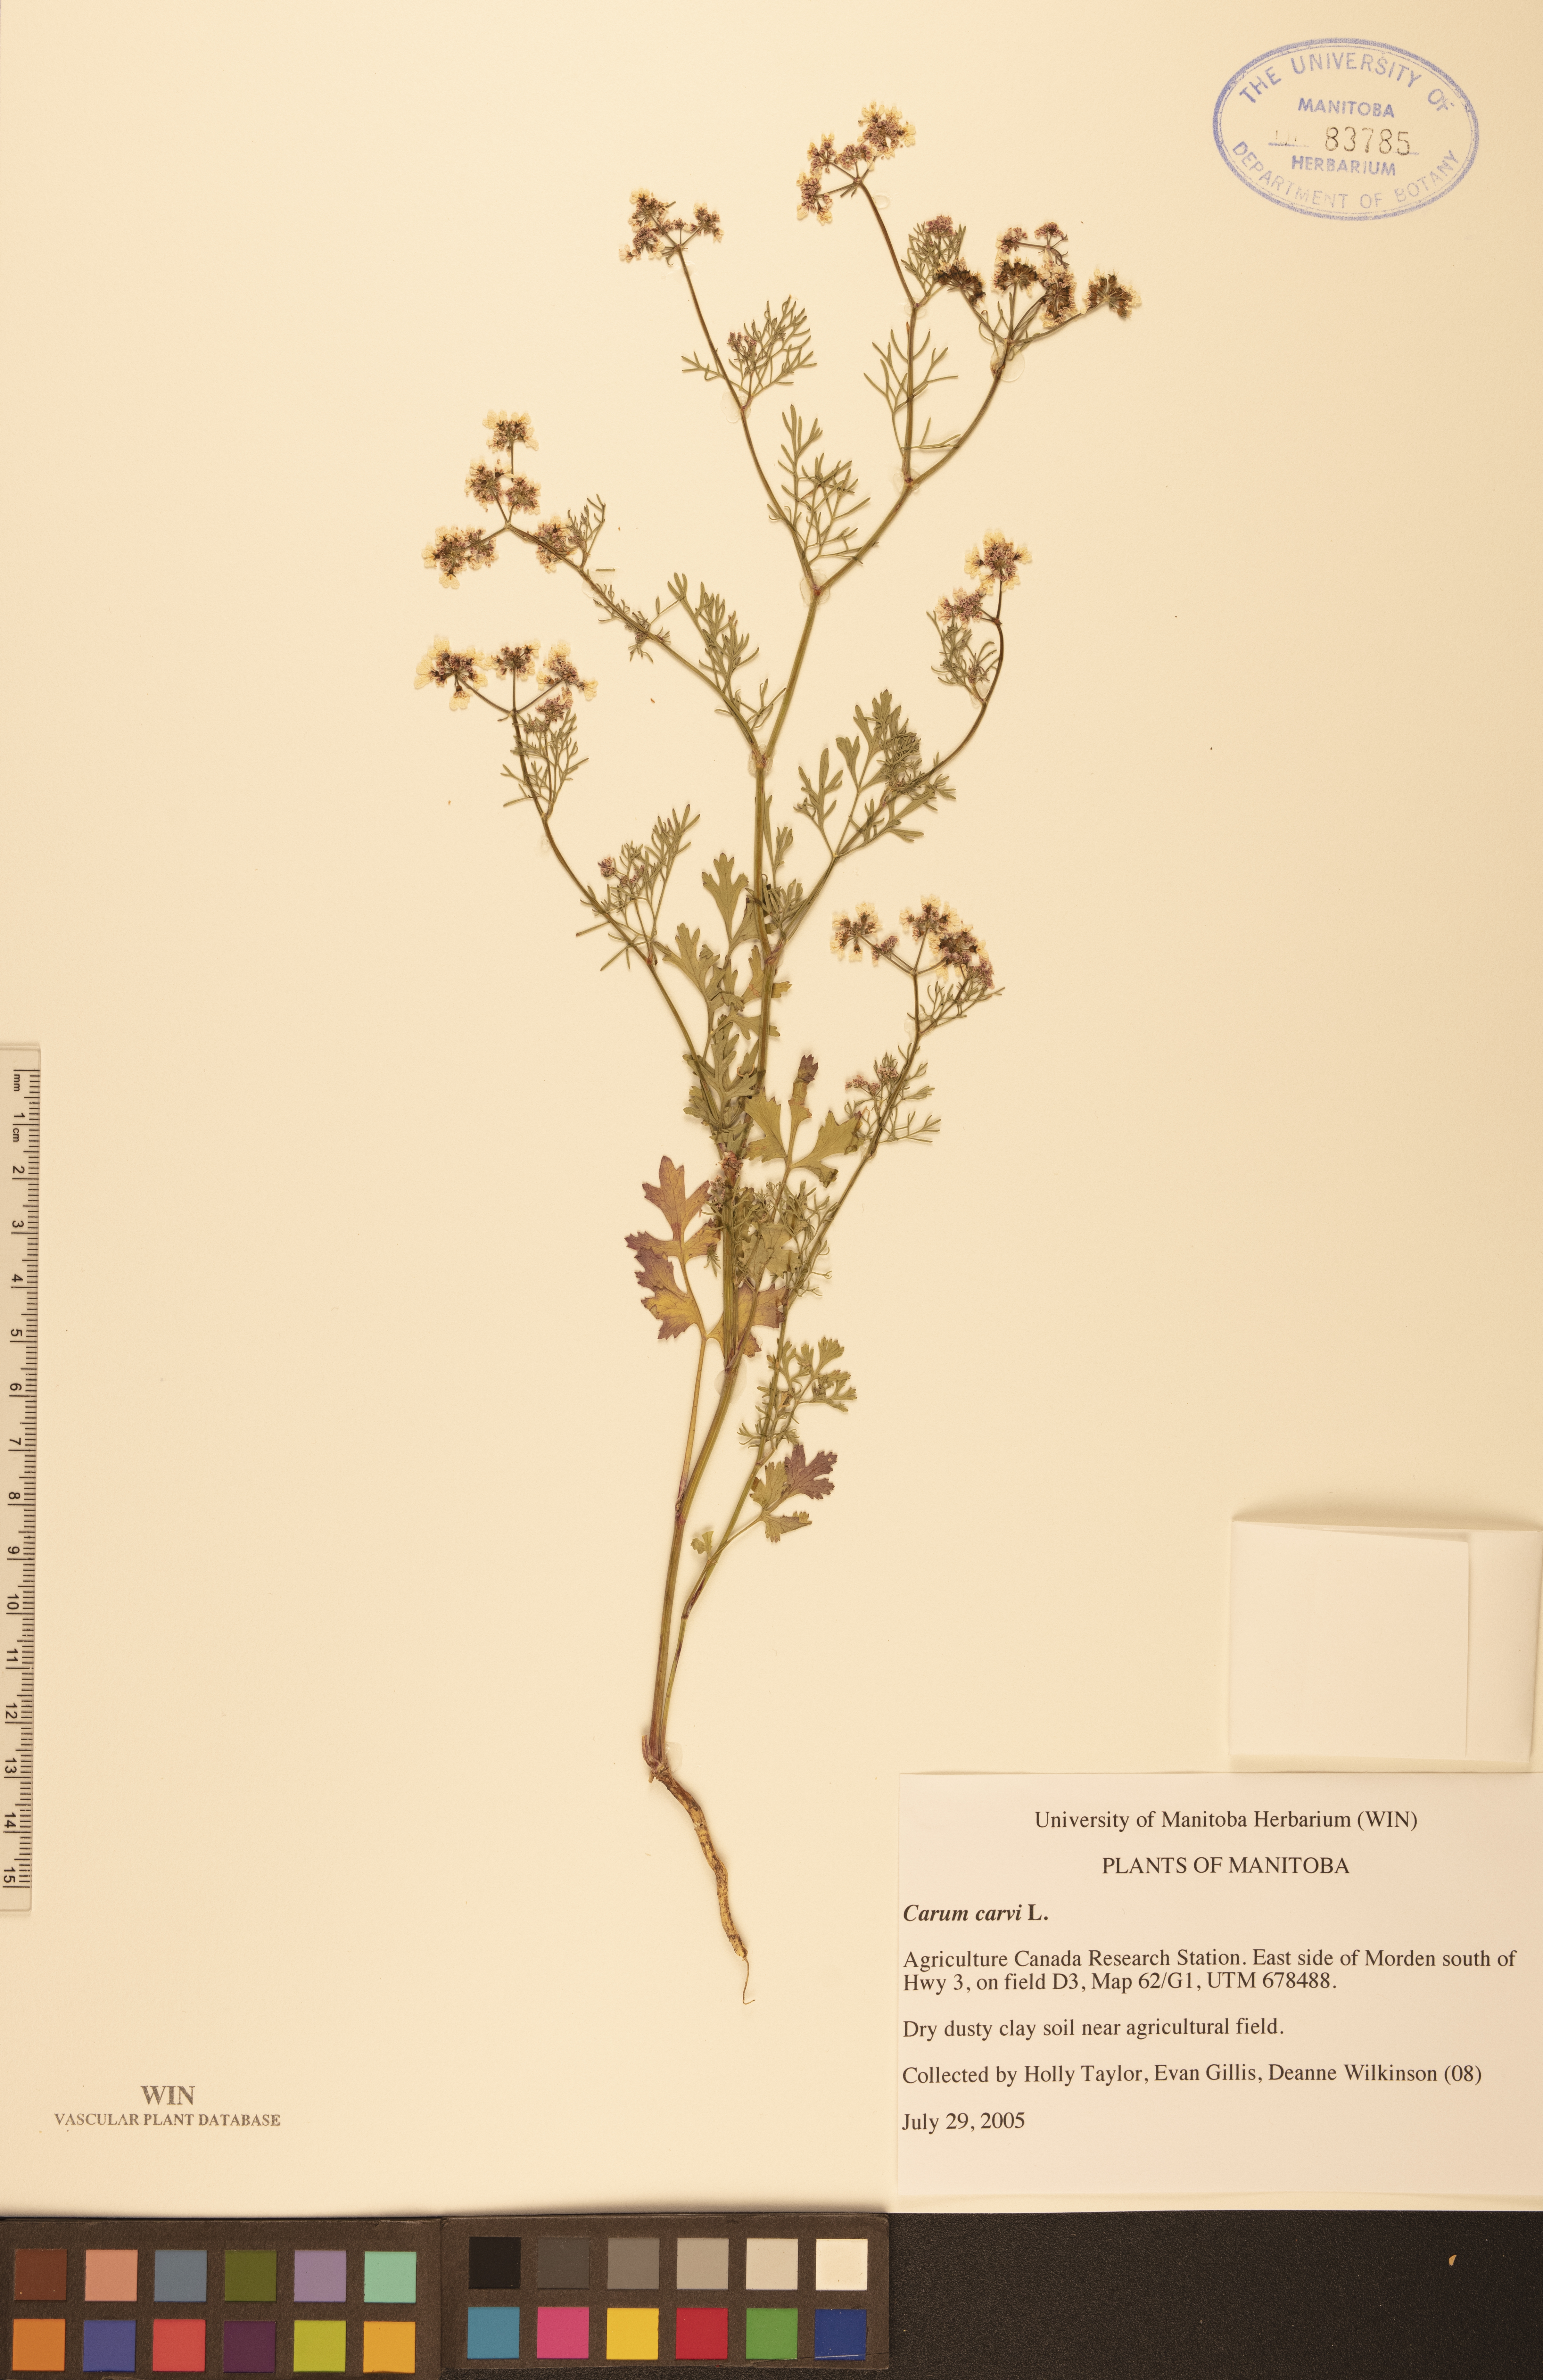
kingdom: Plantae
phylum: Tracheophyta
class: Magnoliopsida
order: Apiales
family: Apiaceae
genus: Carum
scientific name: Carum carvi
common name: Caraway
